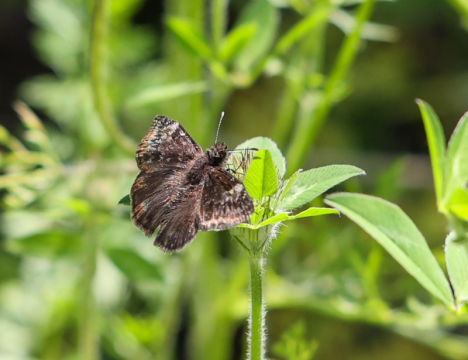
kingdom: Animalia
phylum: Arthropoda
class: Insecta
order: Lepidoptera
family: Hesperiidae
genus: Gesta
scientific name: Gesta
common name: Wild Indigo Duskywing
